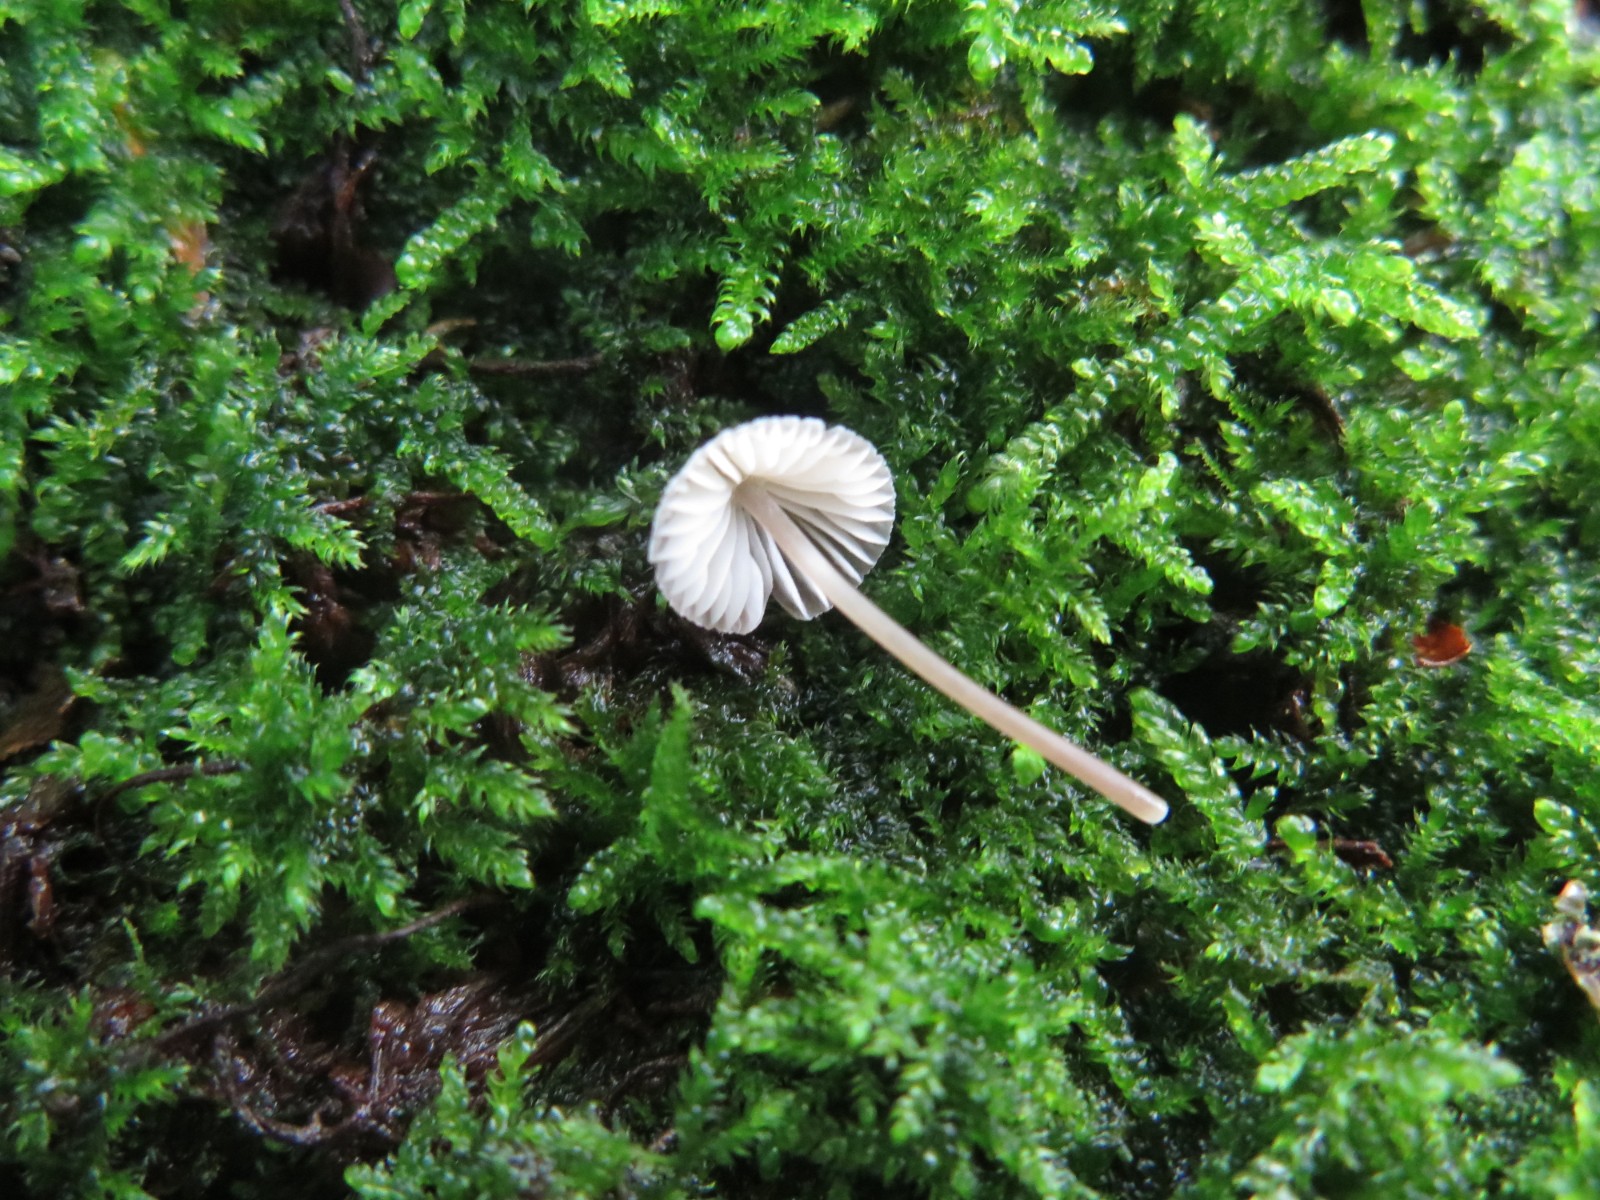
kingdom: Fungi
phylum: Basidiomycota
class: Agaricomycetes
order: Agaricales
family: Mycenaceae
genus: Mycena
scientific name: Mycena erubescens
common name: galde-huesvamp
